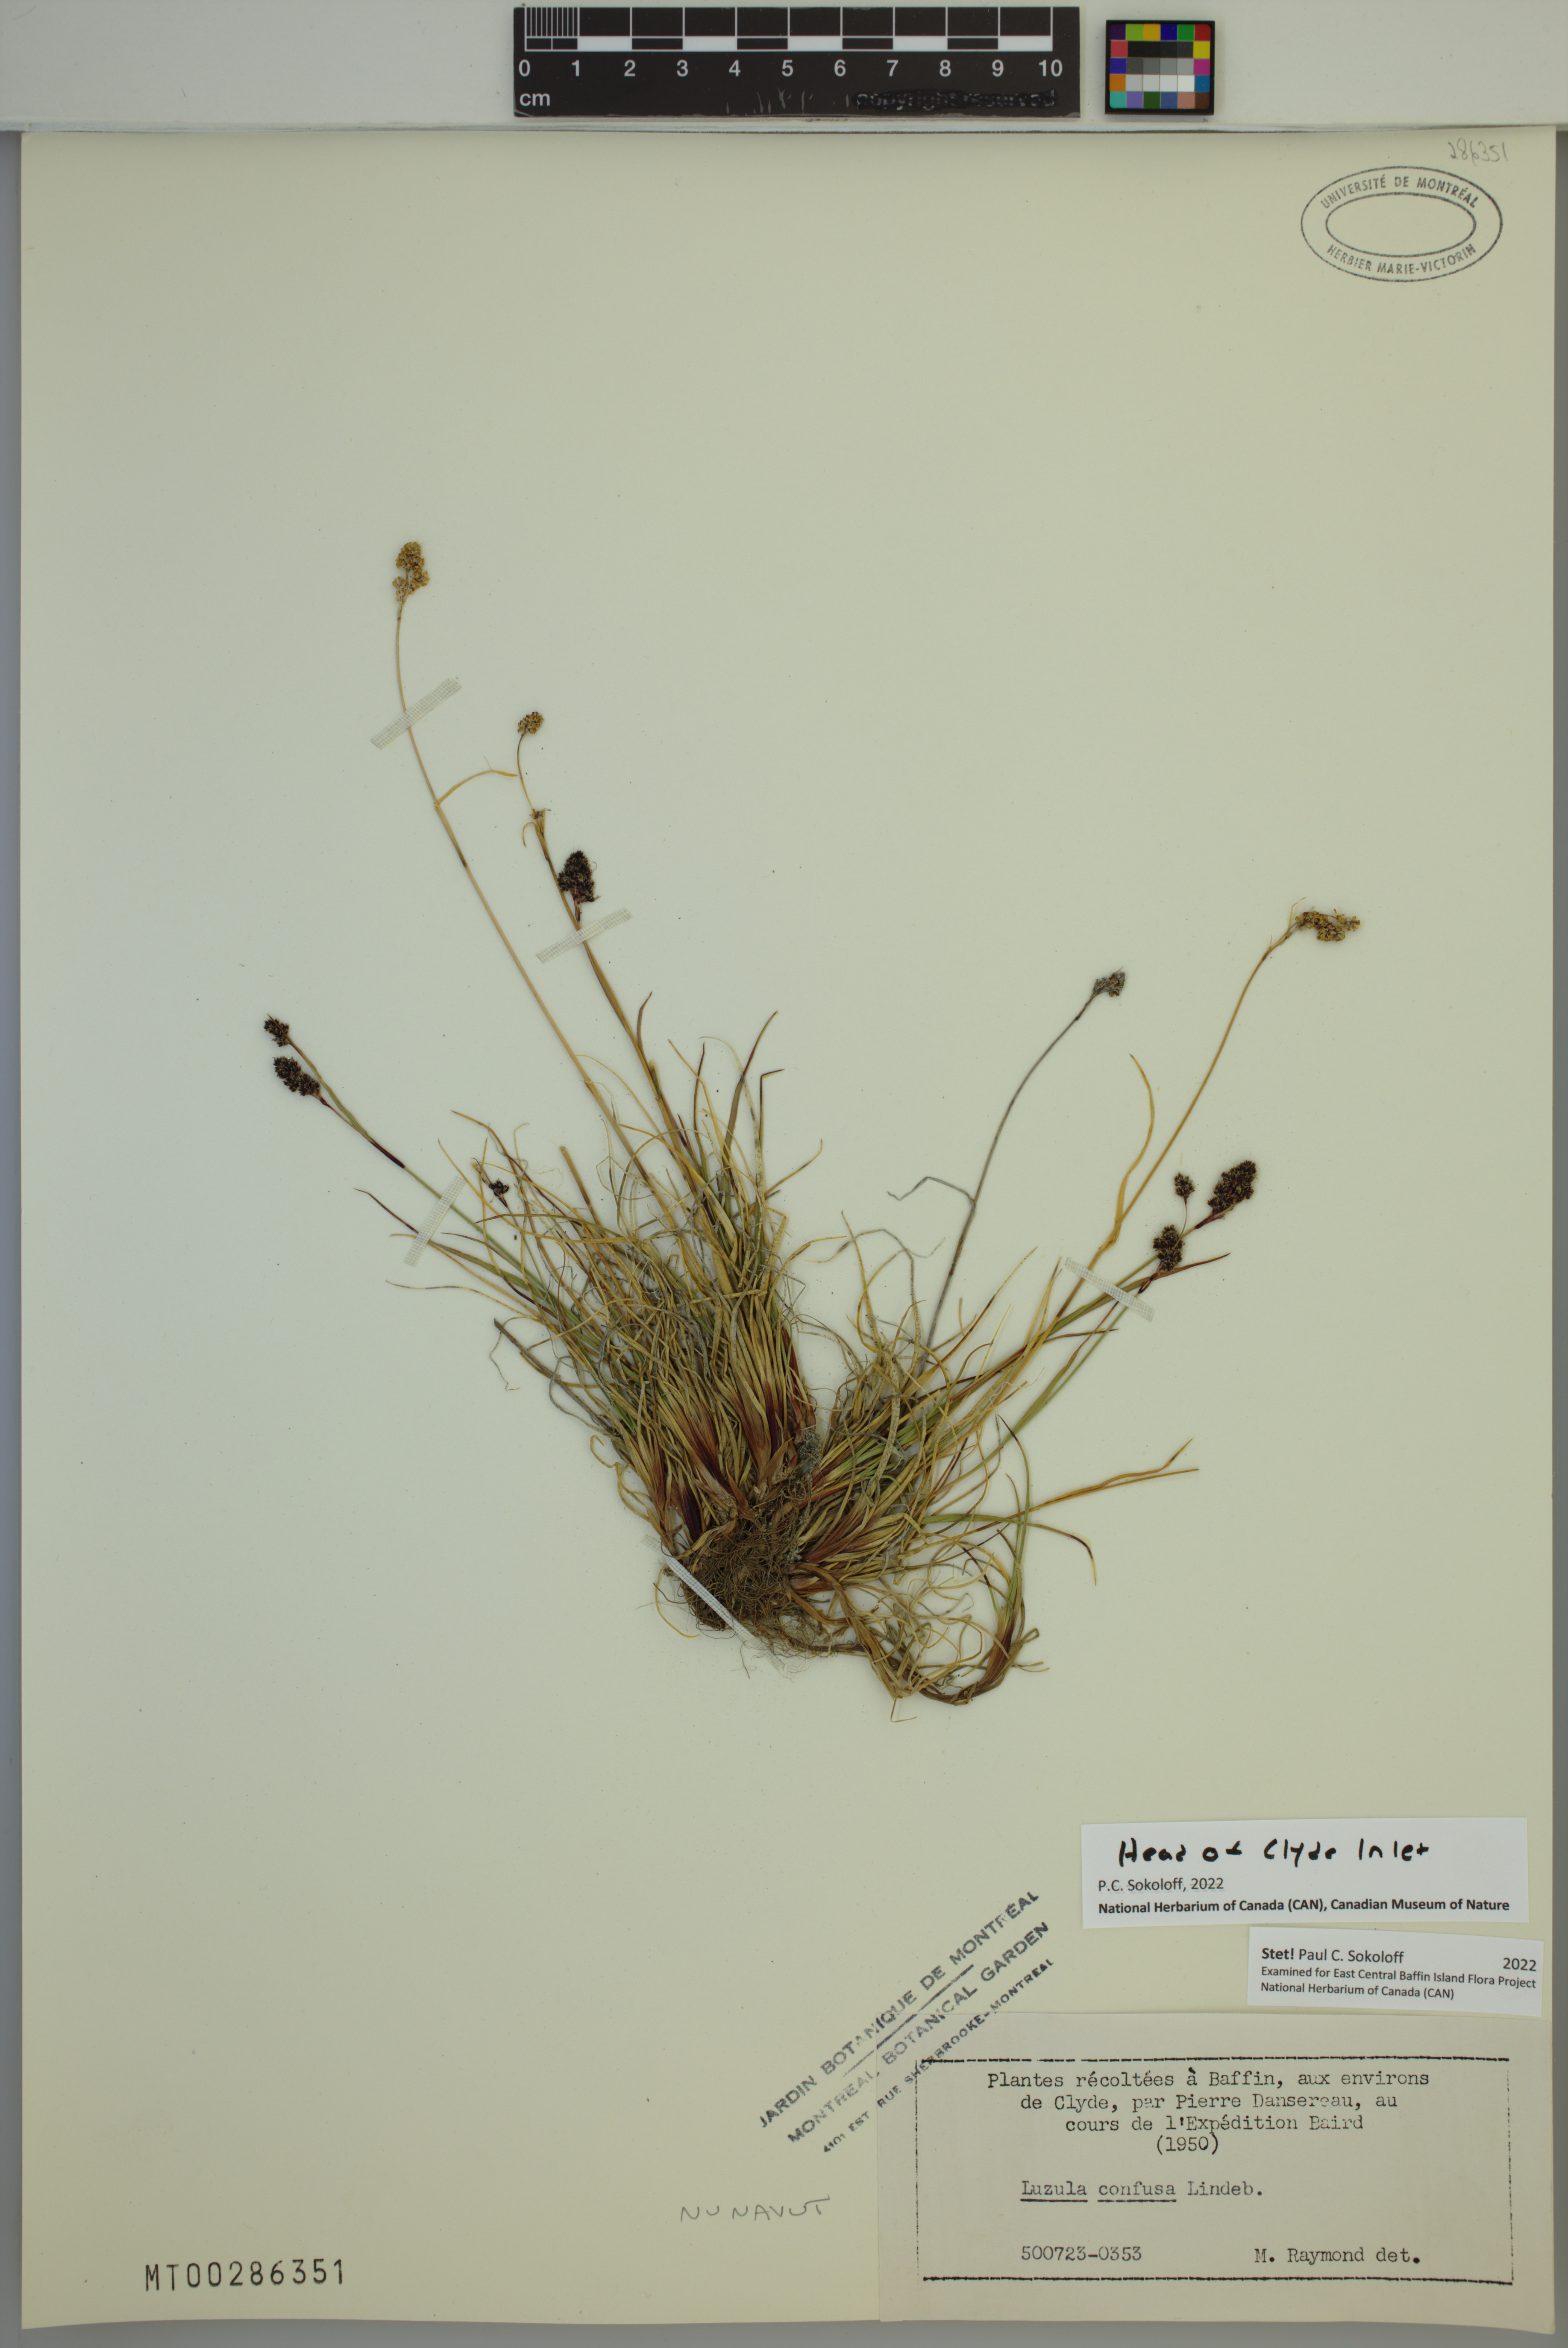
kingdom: Plantae
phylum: Tracheophyta
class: Liliopsida
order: Poales
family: Juncaceae
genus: Luzula
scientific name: Luzula confusa
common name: Northern wood rush
